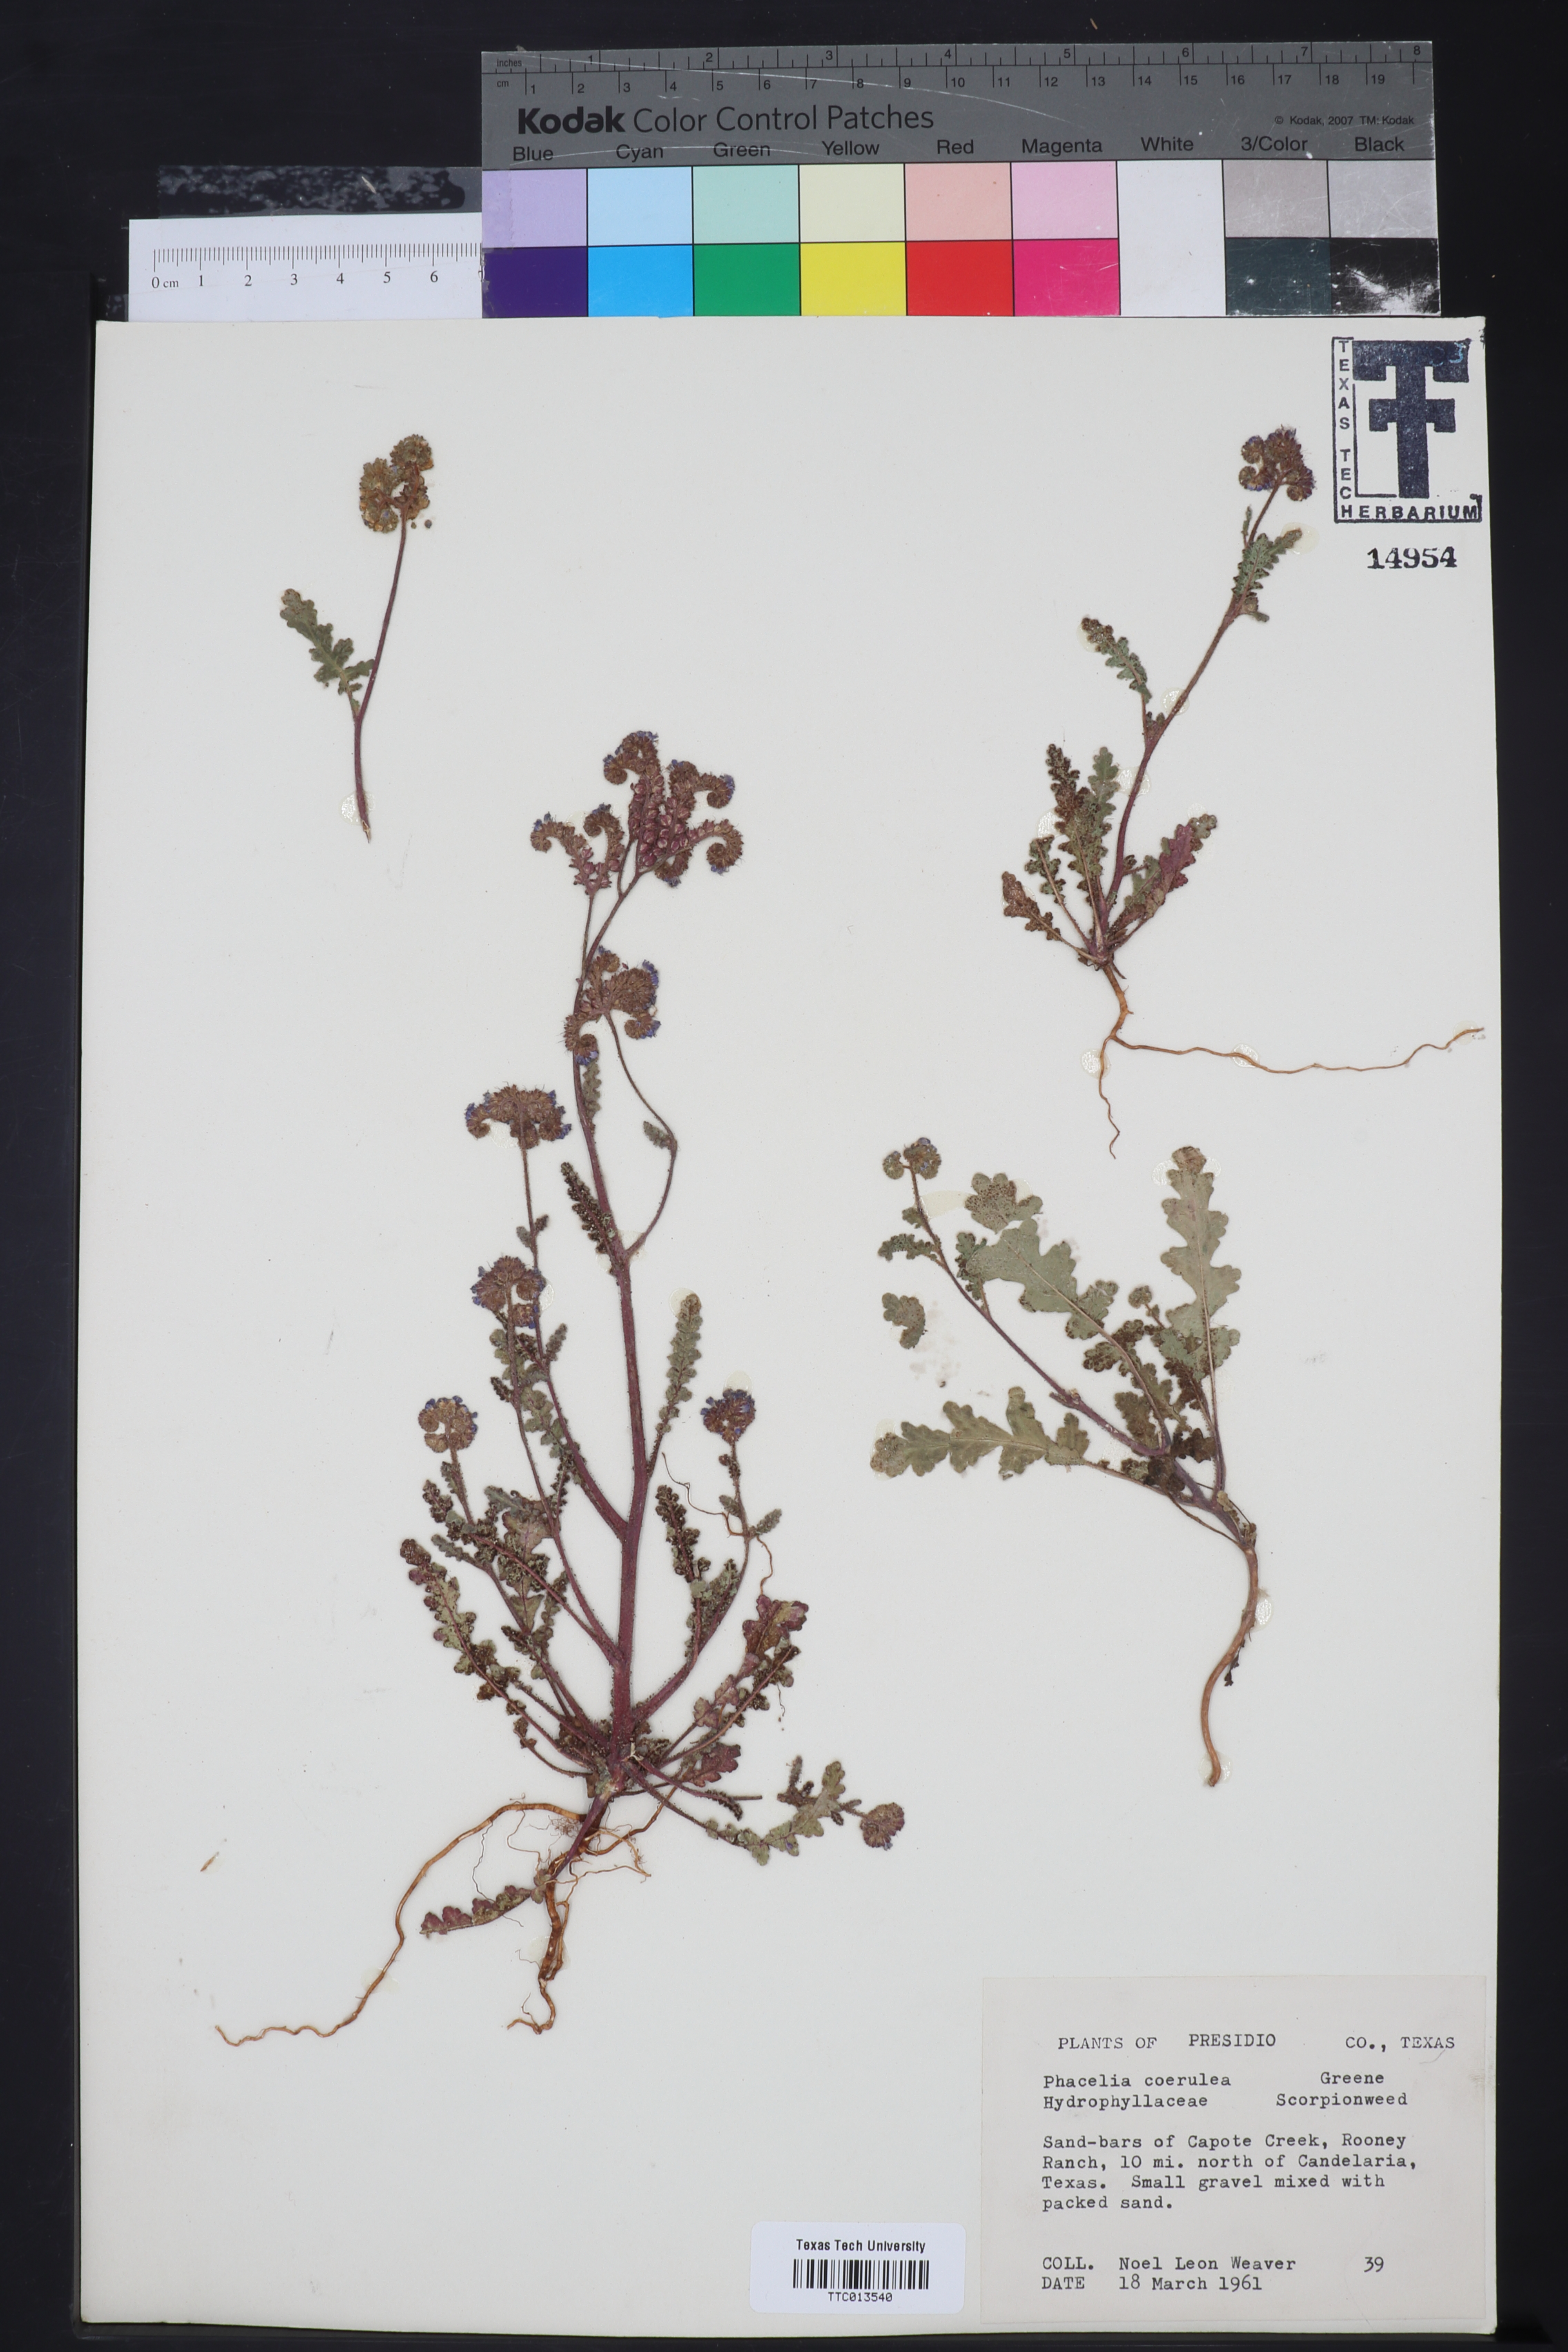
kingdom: Plantae
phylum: Tracheophyta
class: Magnoliopsida
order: Boraginales
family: Hydrophyllaceae
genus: Phacelia
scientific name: Phacelia coerulea
